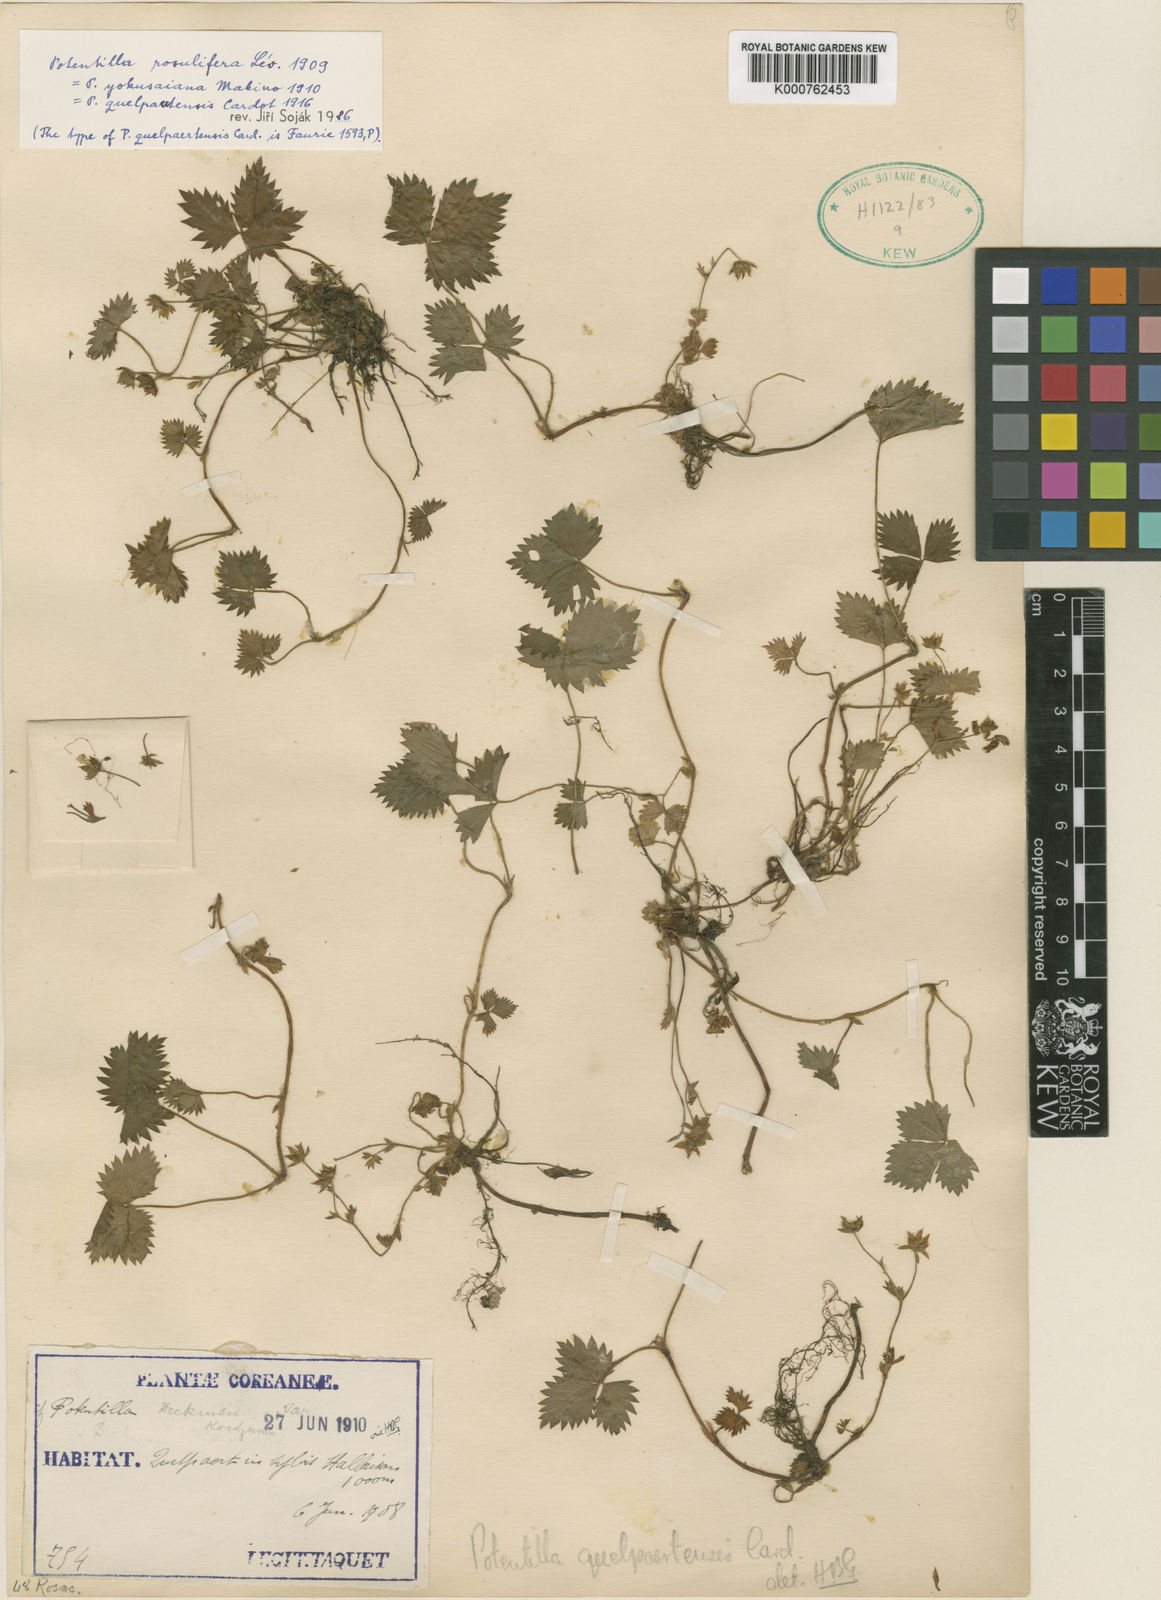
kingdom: Plantae
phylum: Tracheophyta
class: Magnoliopsida
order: Rosales
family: Rosaceae
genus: Potentilla
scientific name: Potentilla rosulifera
